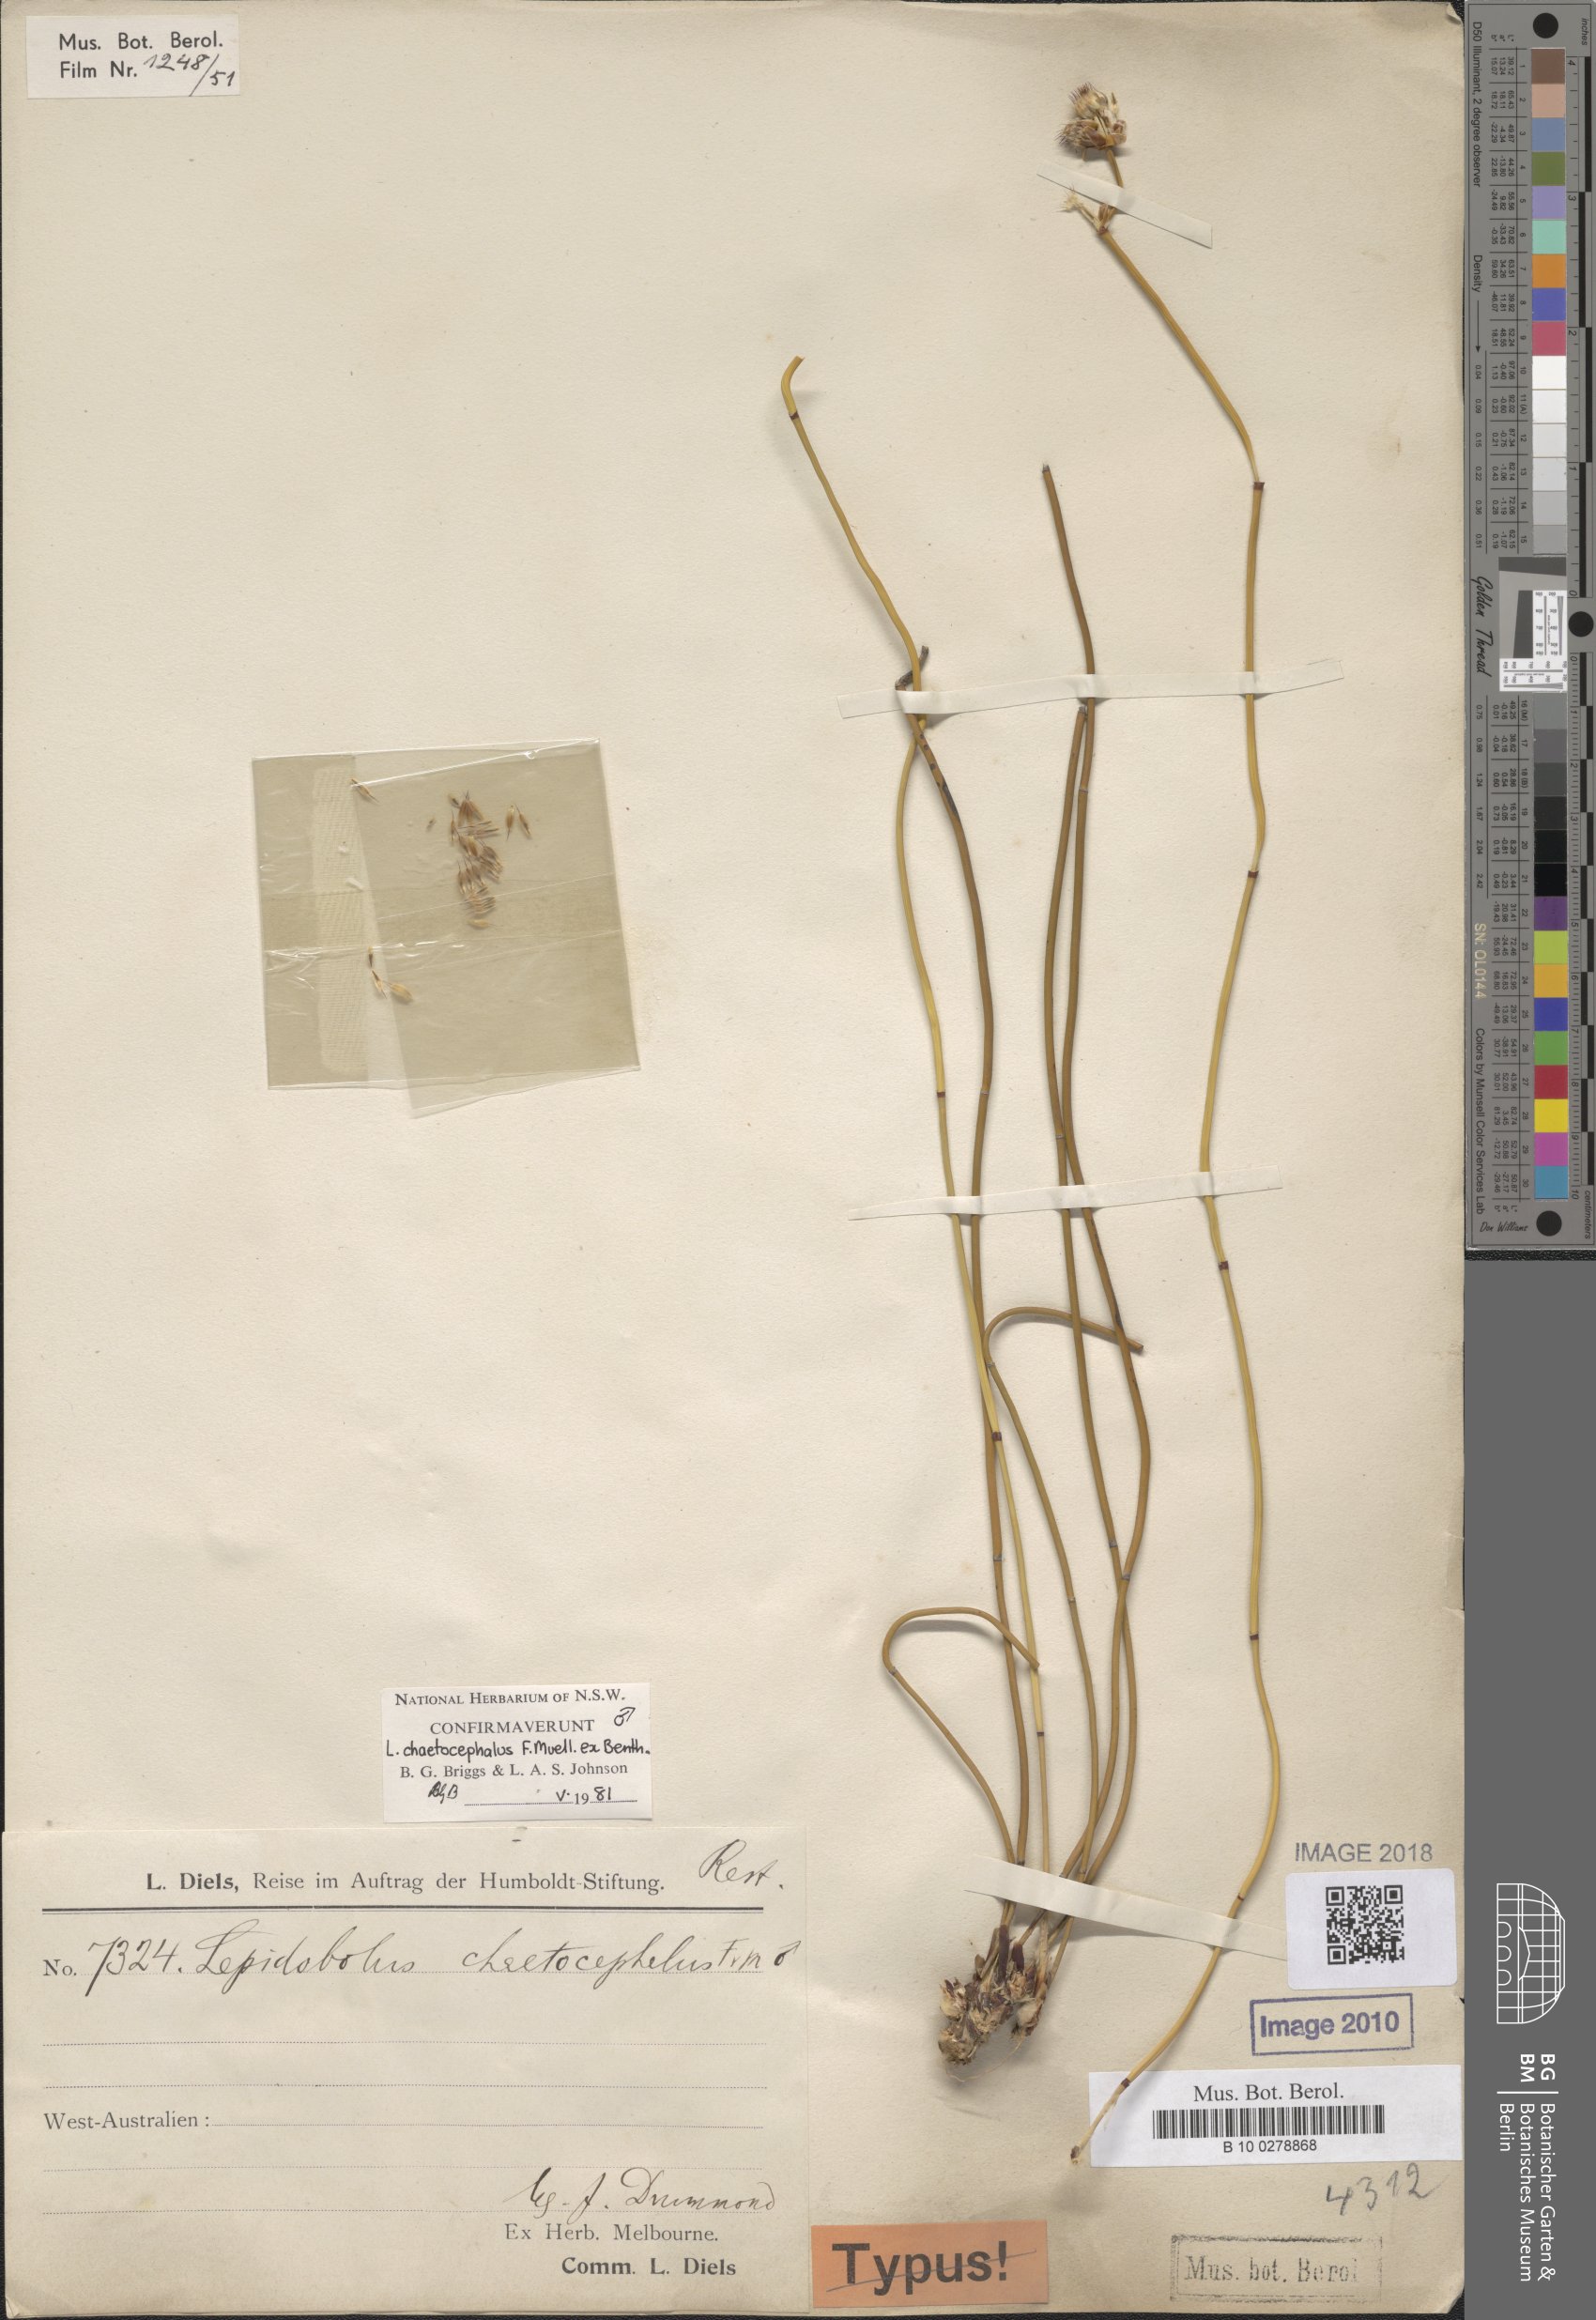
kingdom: Plantae
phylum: Tracheophyta
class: Liliopsida
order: Poales
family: Restionaceae
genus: Lepidobolus
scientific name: Lepidobolus chaetocephalus
